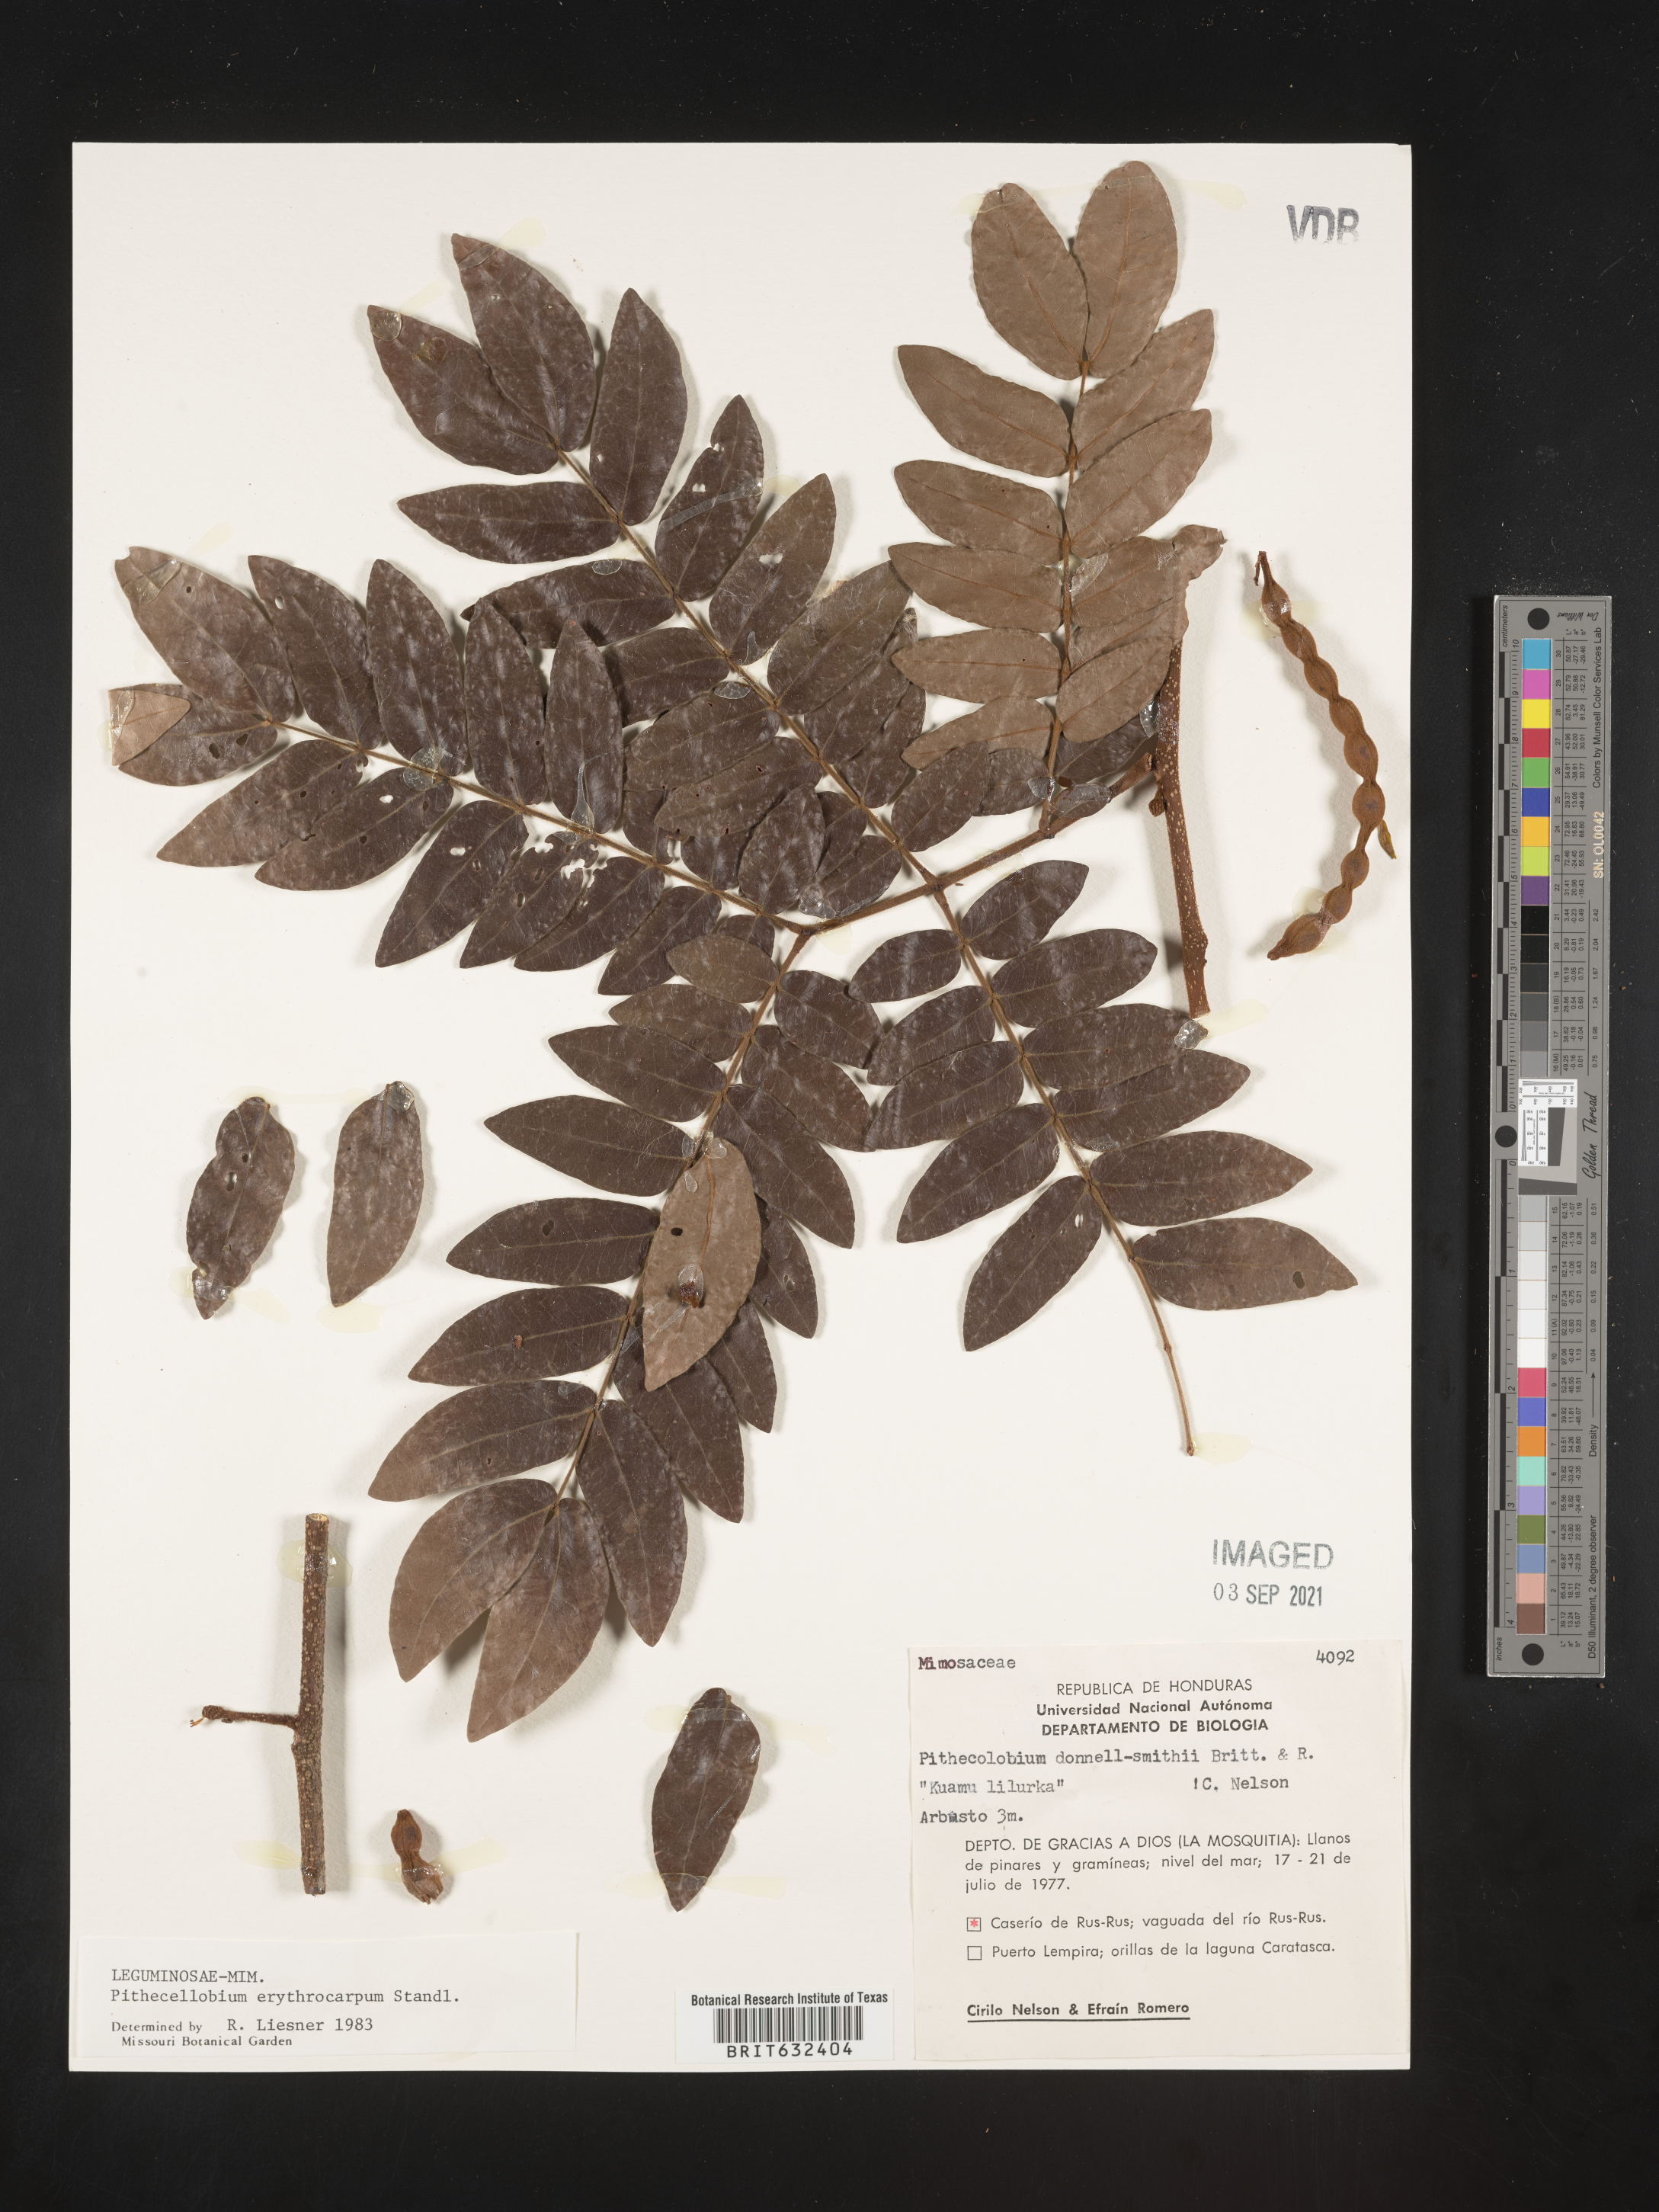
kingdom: Plantae
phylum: Tracheophyta
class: Magnoliopsida
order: Fabales
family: Fabaceae
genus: Pithecellobium
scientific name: Pithecellobium
